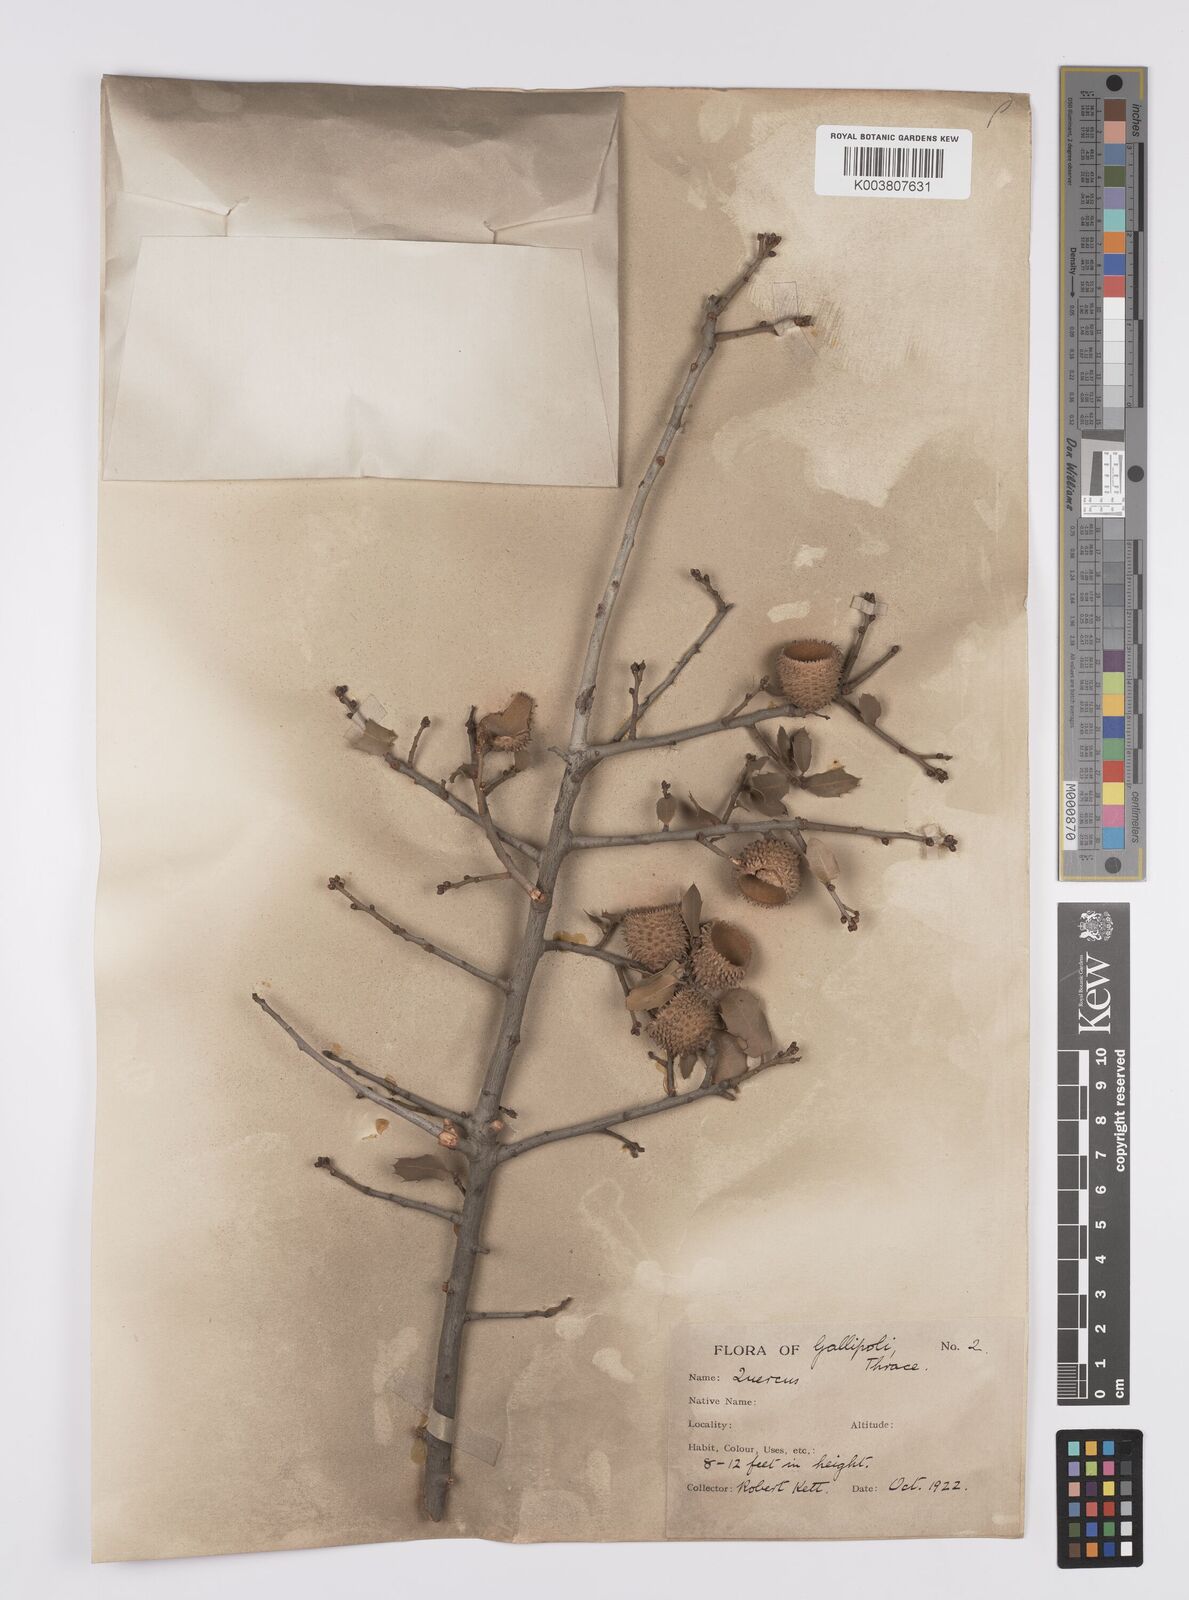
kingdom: Plantae
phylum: Tracheophyta
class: Magnoliopsida
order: Fagales
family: Fagaceae
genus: Quercus
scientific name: Quercus coccifera
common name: Kermes oak
